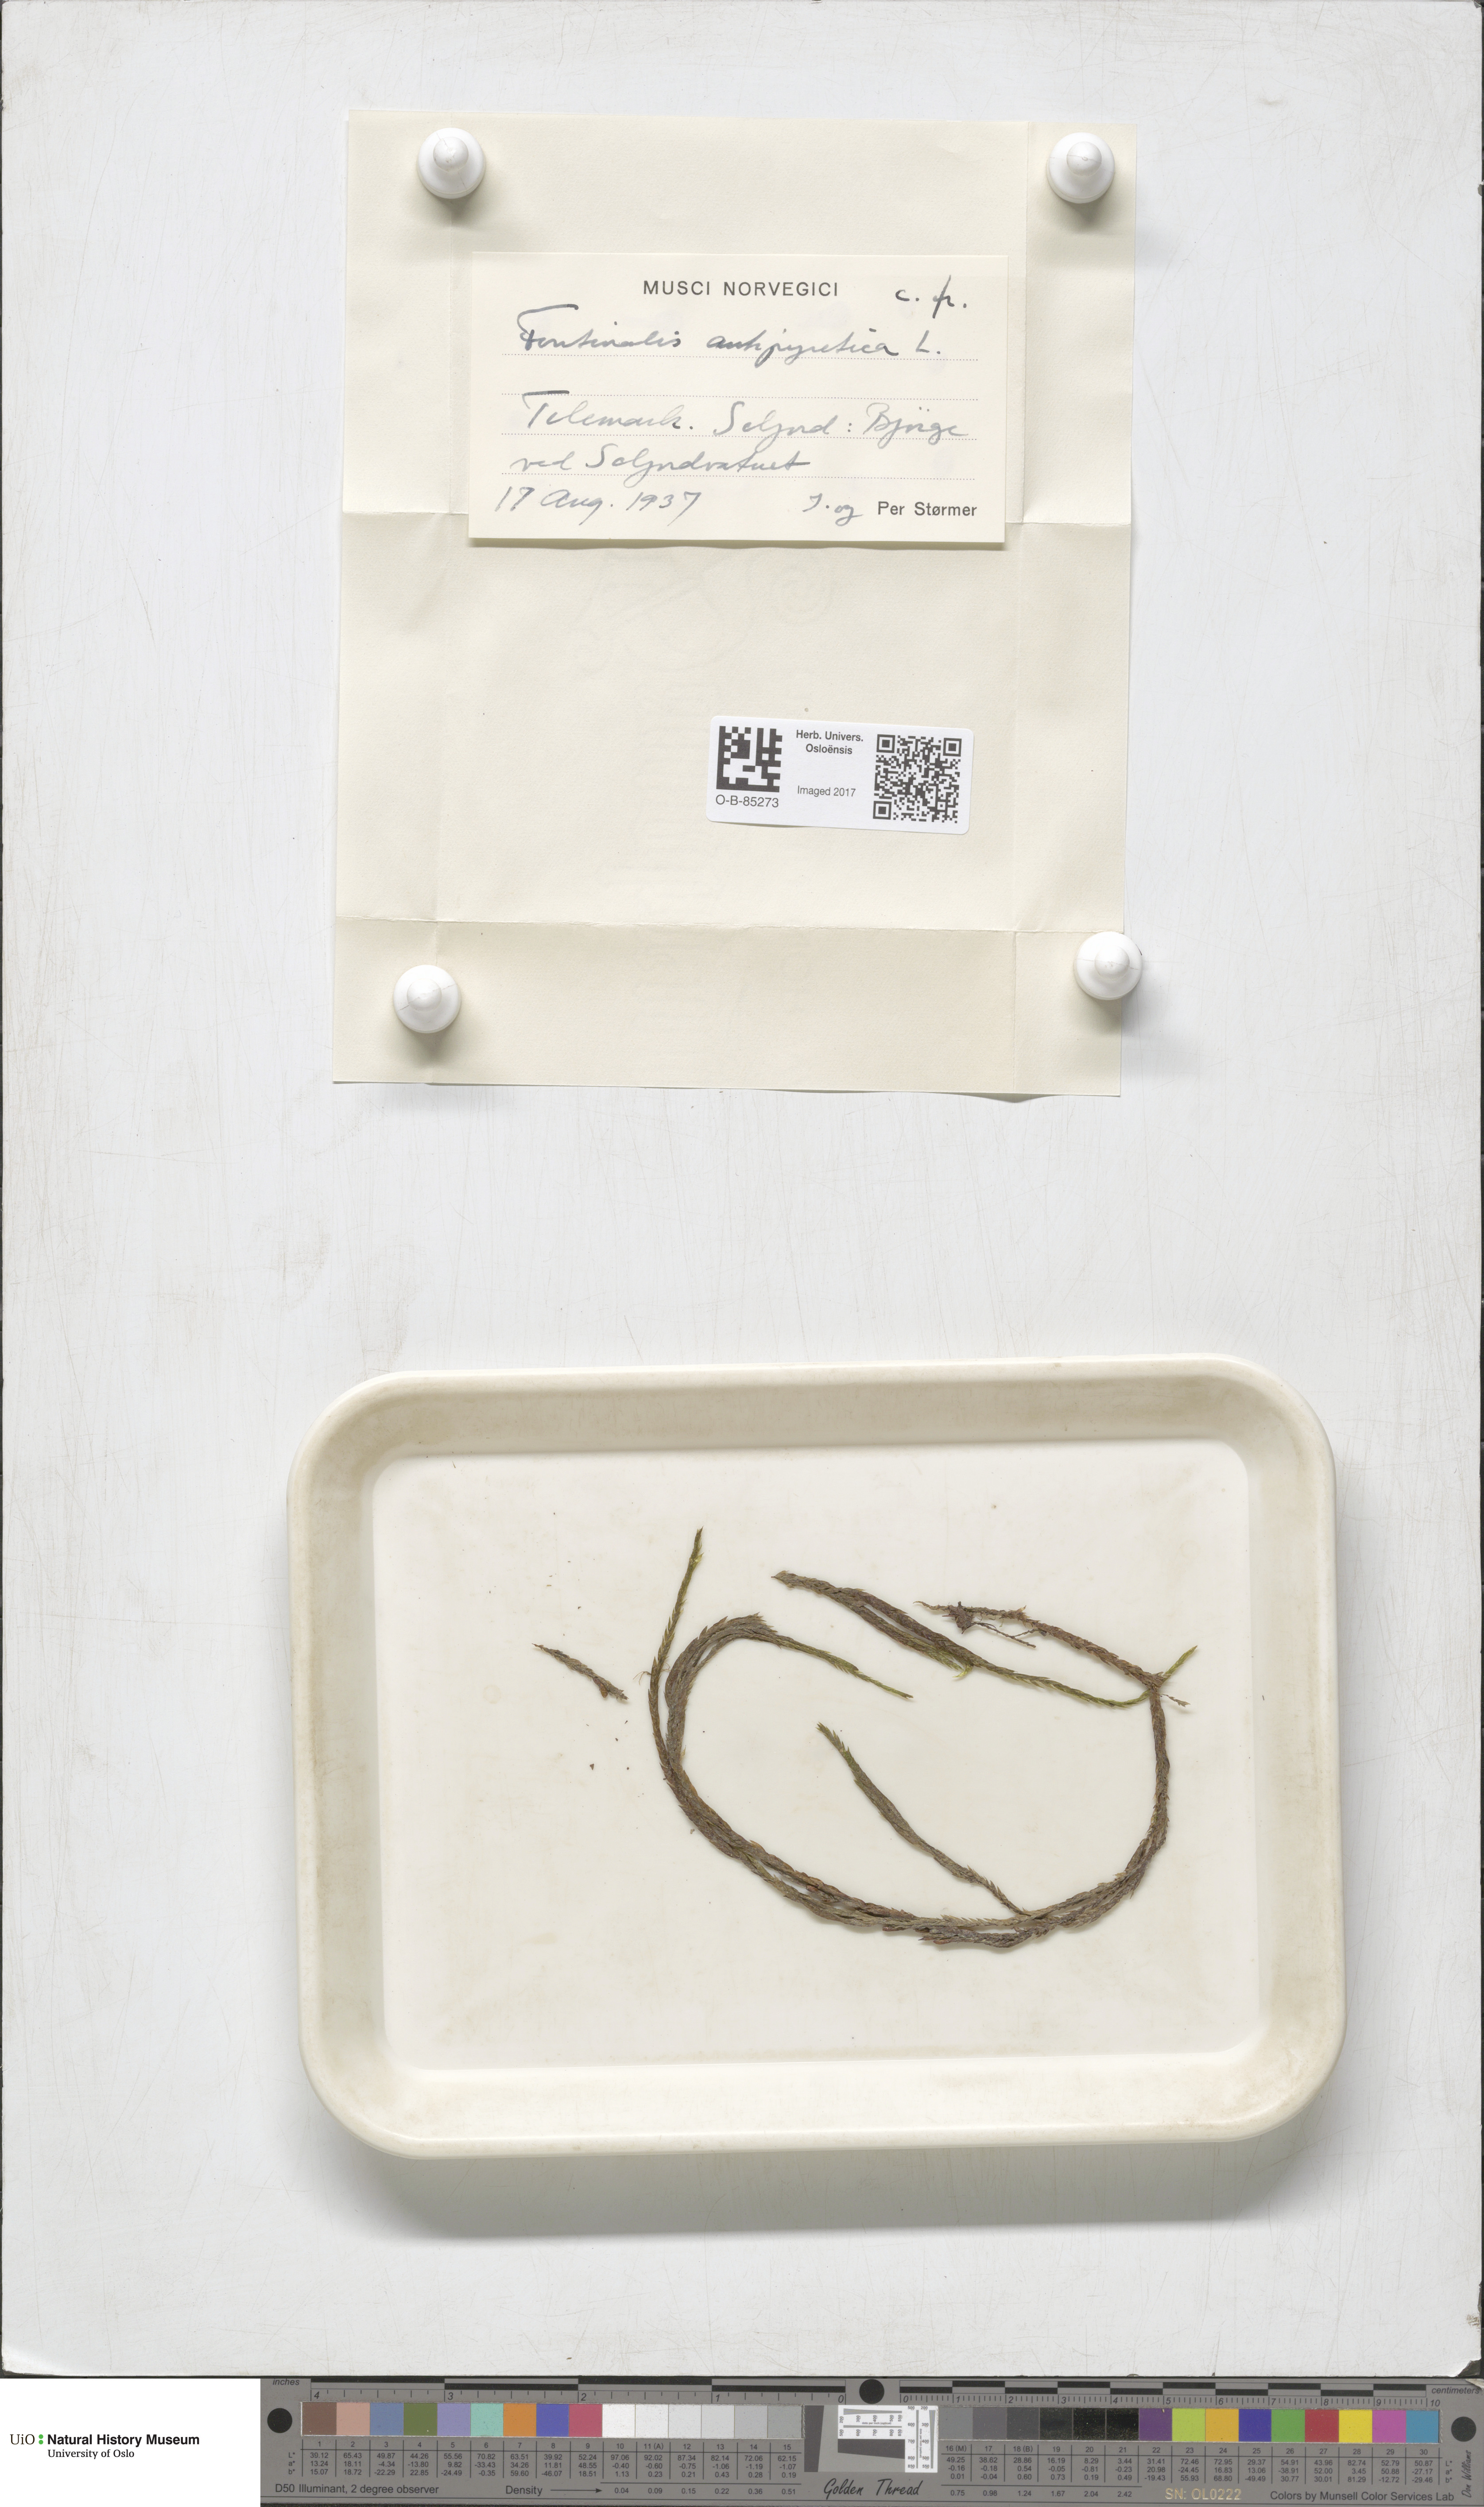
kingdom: Plantae
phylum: Bryophyta
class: Bryopsida
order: Hypnales
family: Fontinalaceae
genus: Fontinalis
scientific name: Fontinalis antipyretica
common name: Greater water-moss
